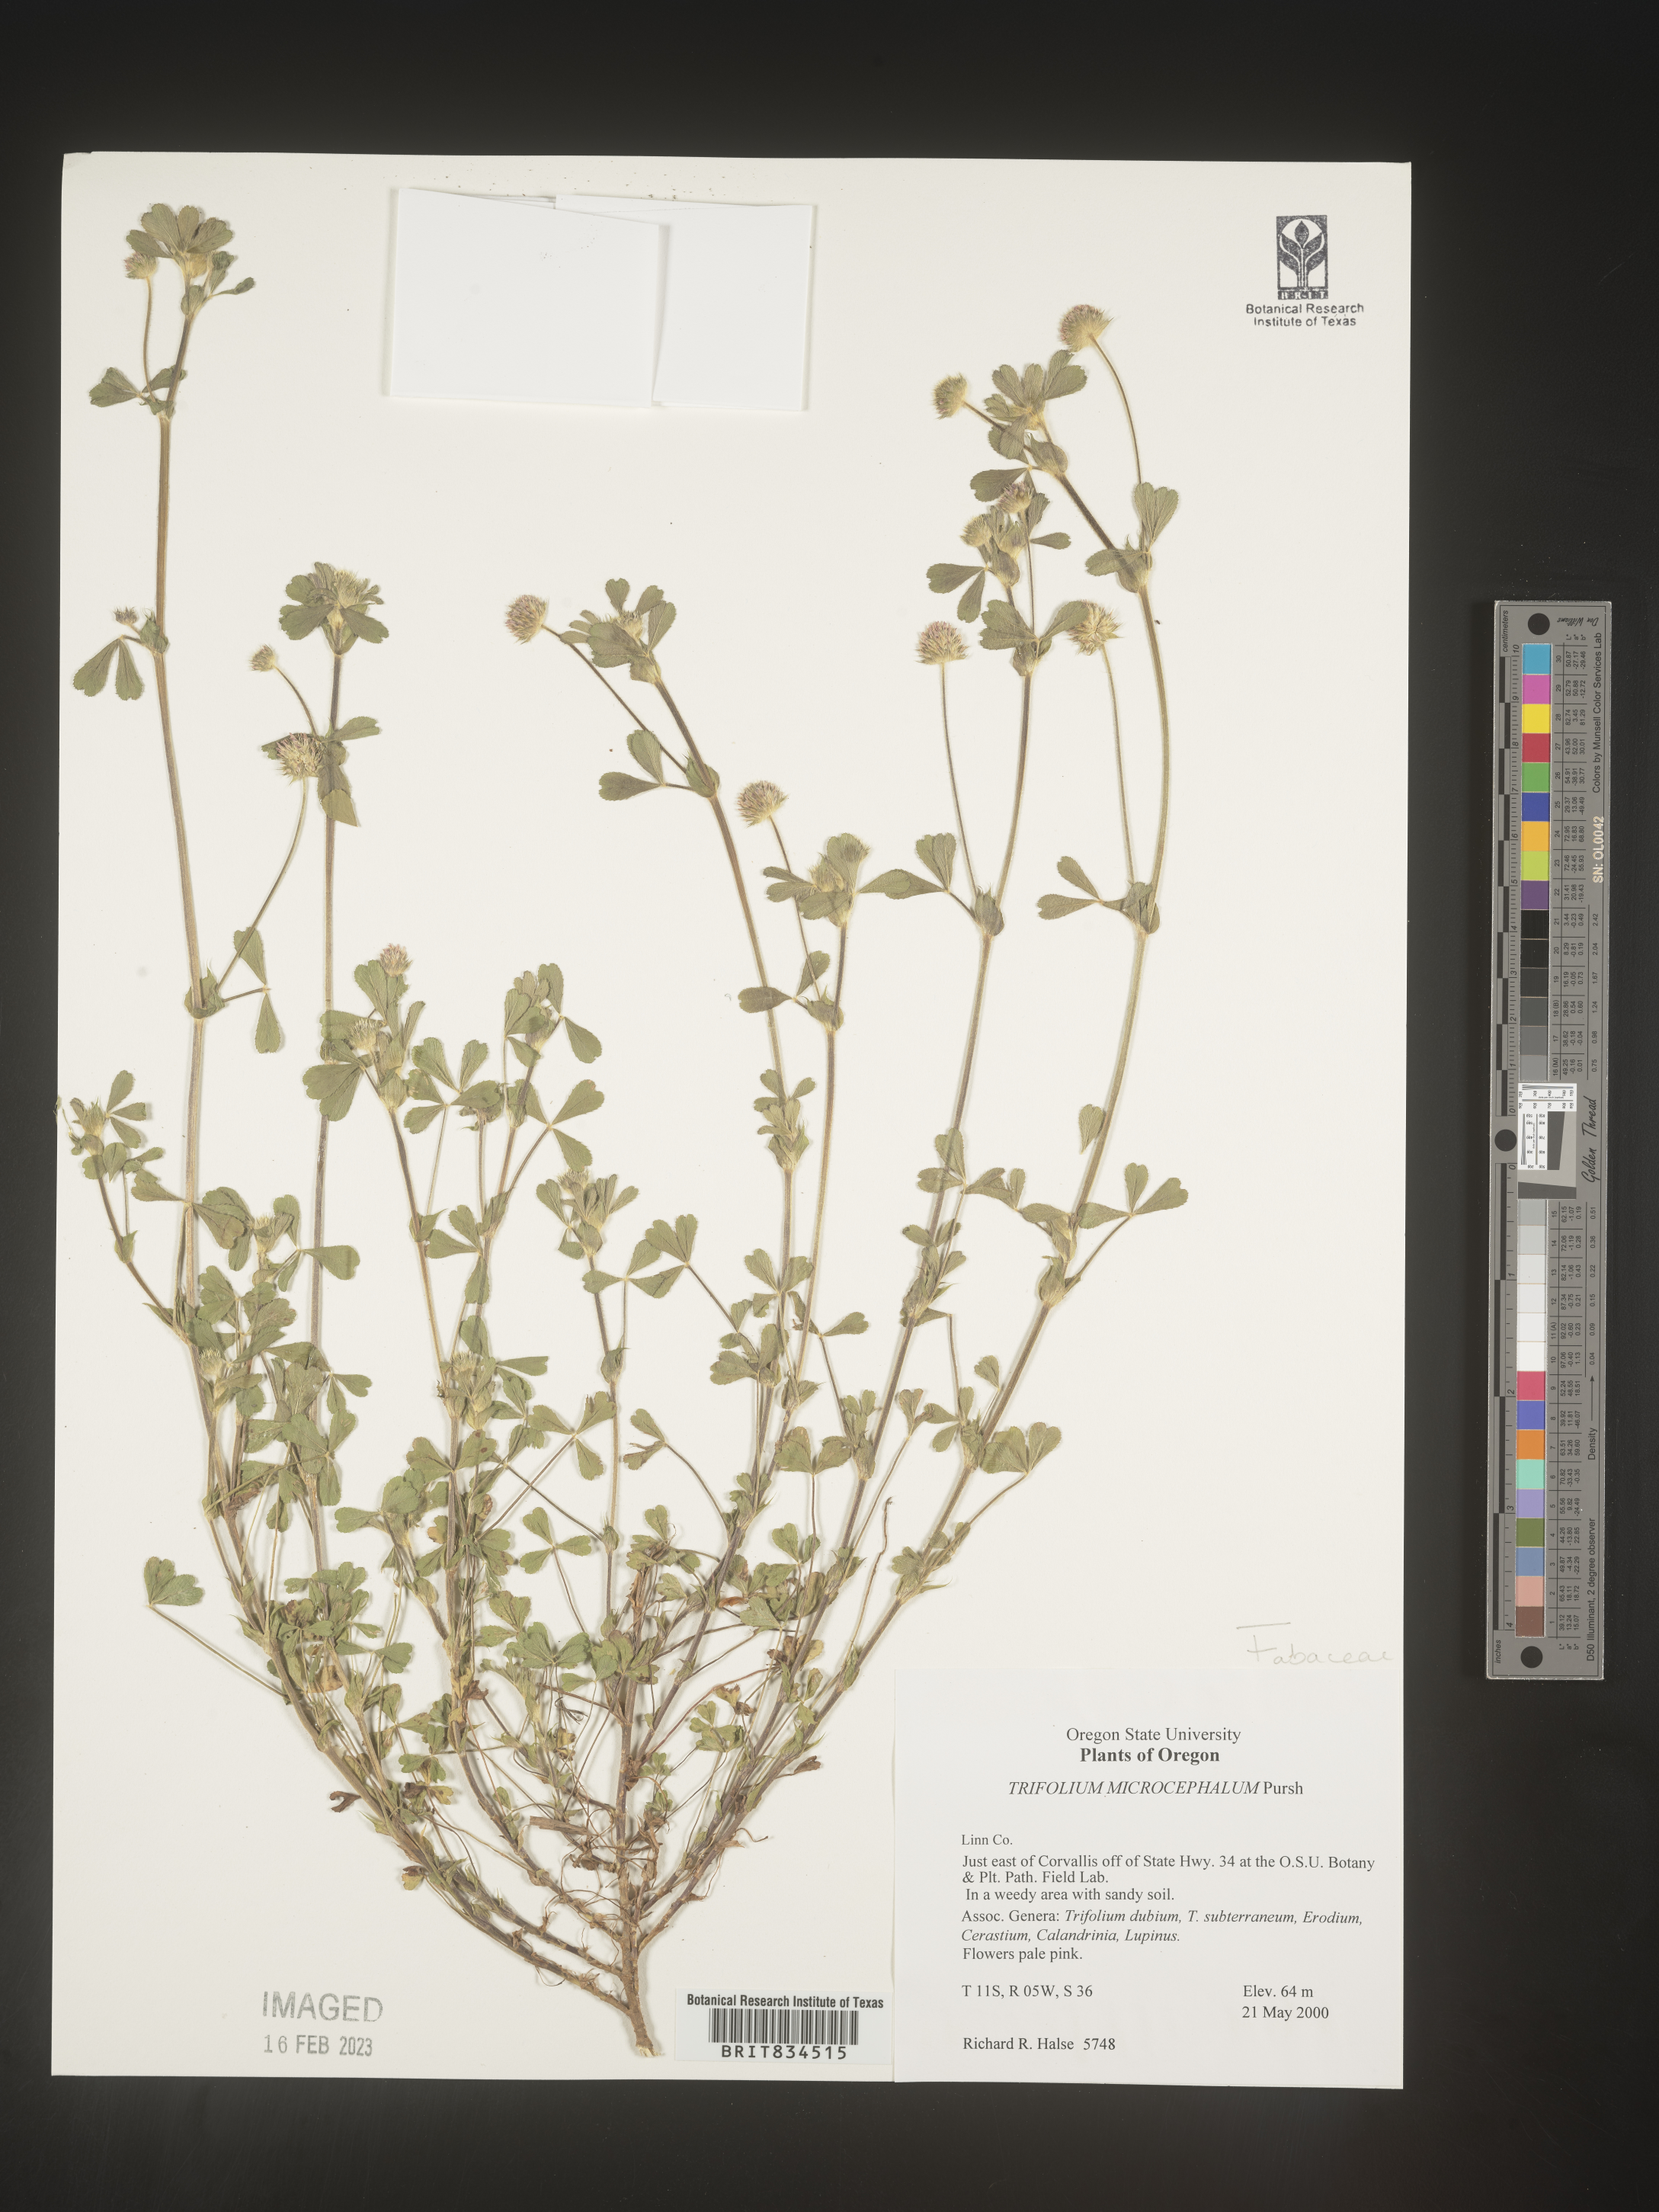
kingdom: Plantae
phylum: Tracheophyta
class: Magnoliopsida
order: Fabales
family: Fabaceae
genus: Trifolium
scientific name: Trifolium
